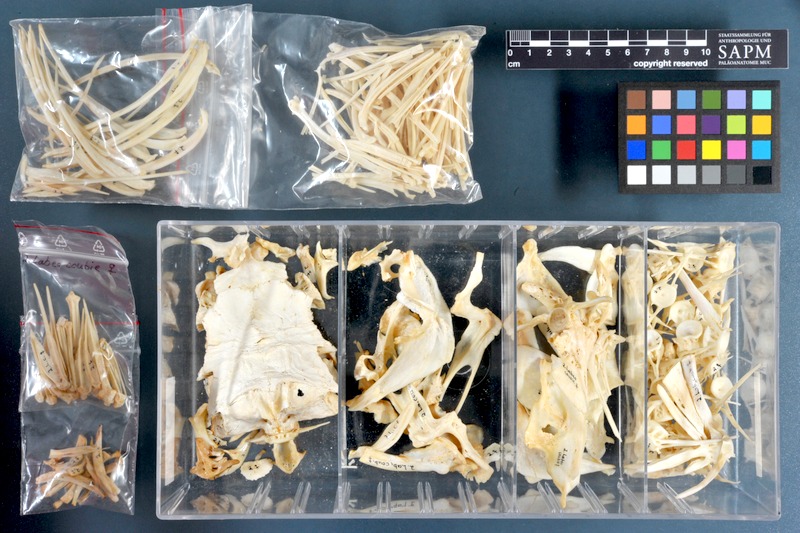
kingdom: Animalia
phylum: Chordata
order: Cypriniformes
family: Cyprinidae
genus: Labeo
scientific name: Labeo coubie
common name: African carp
